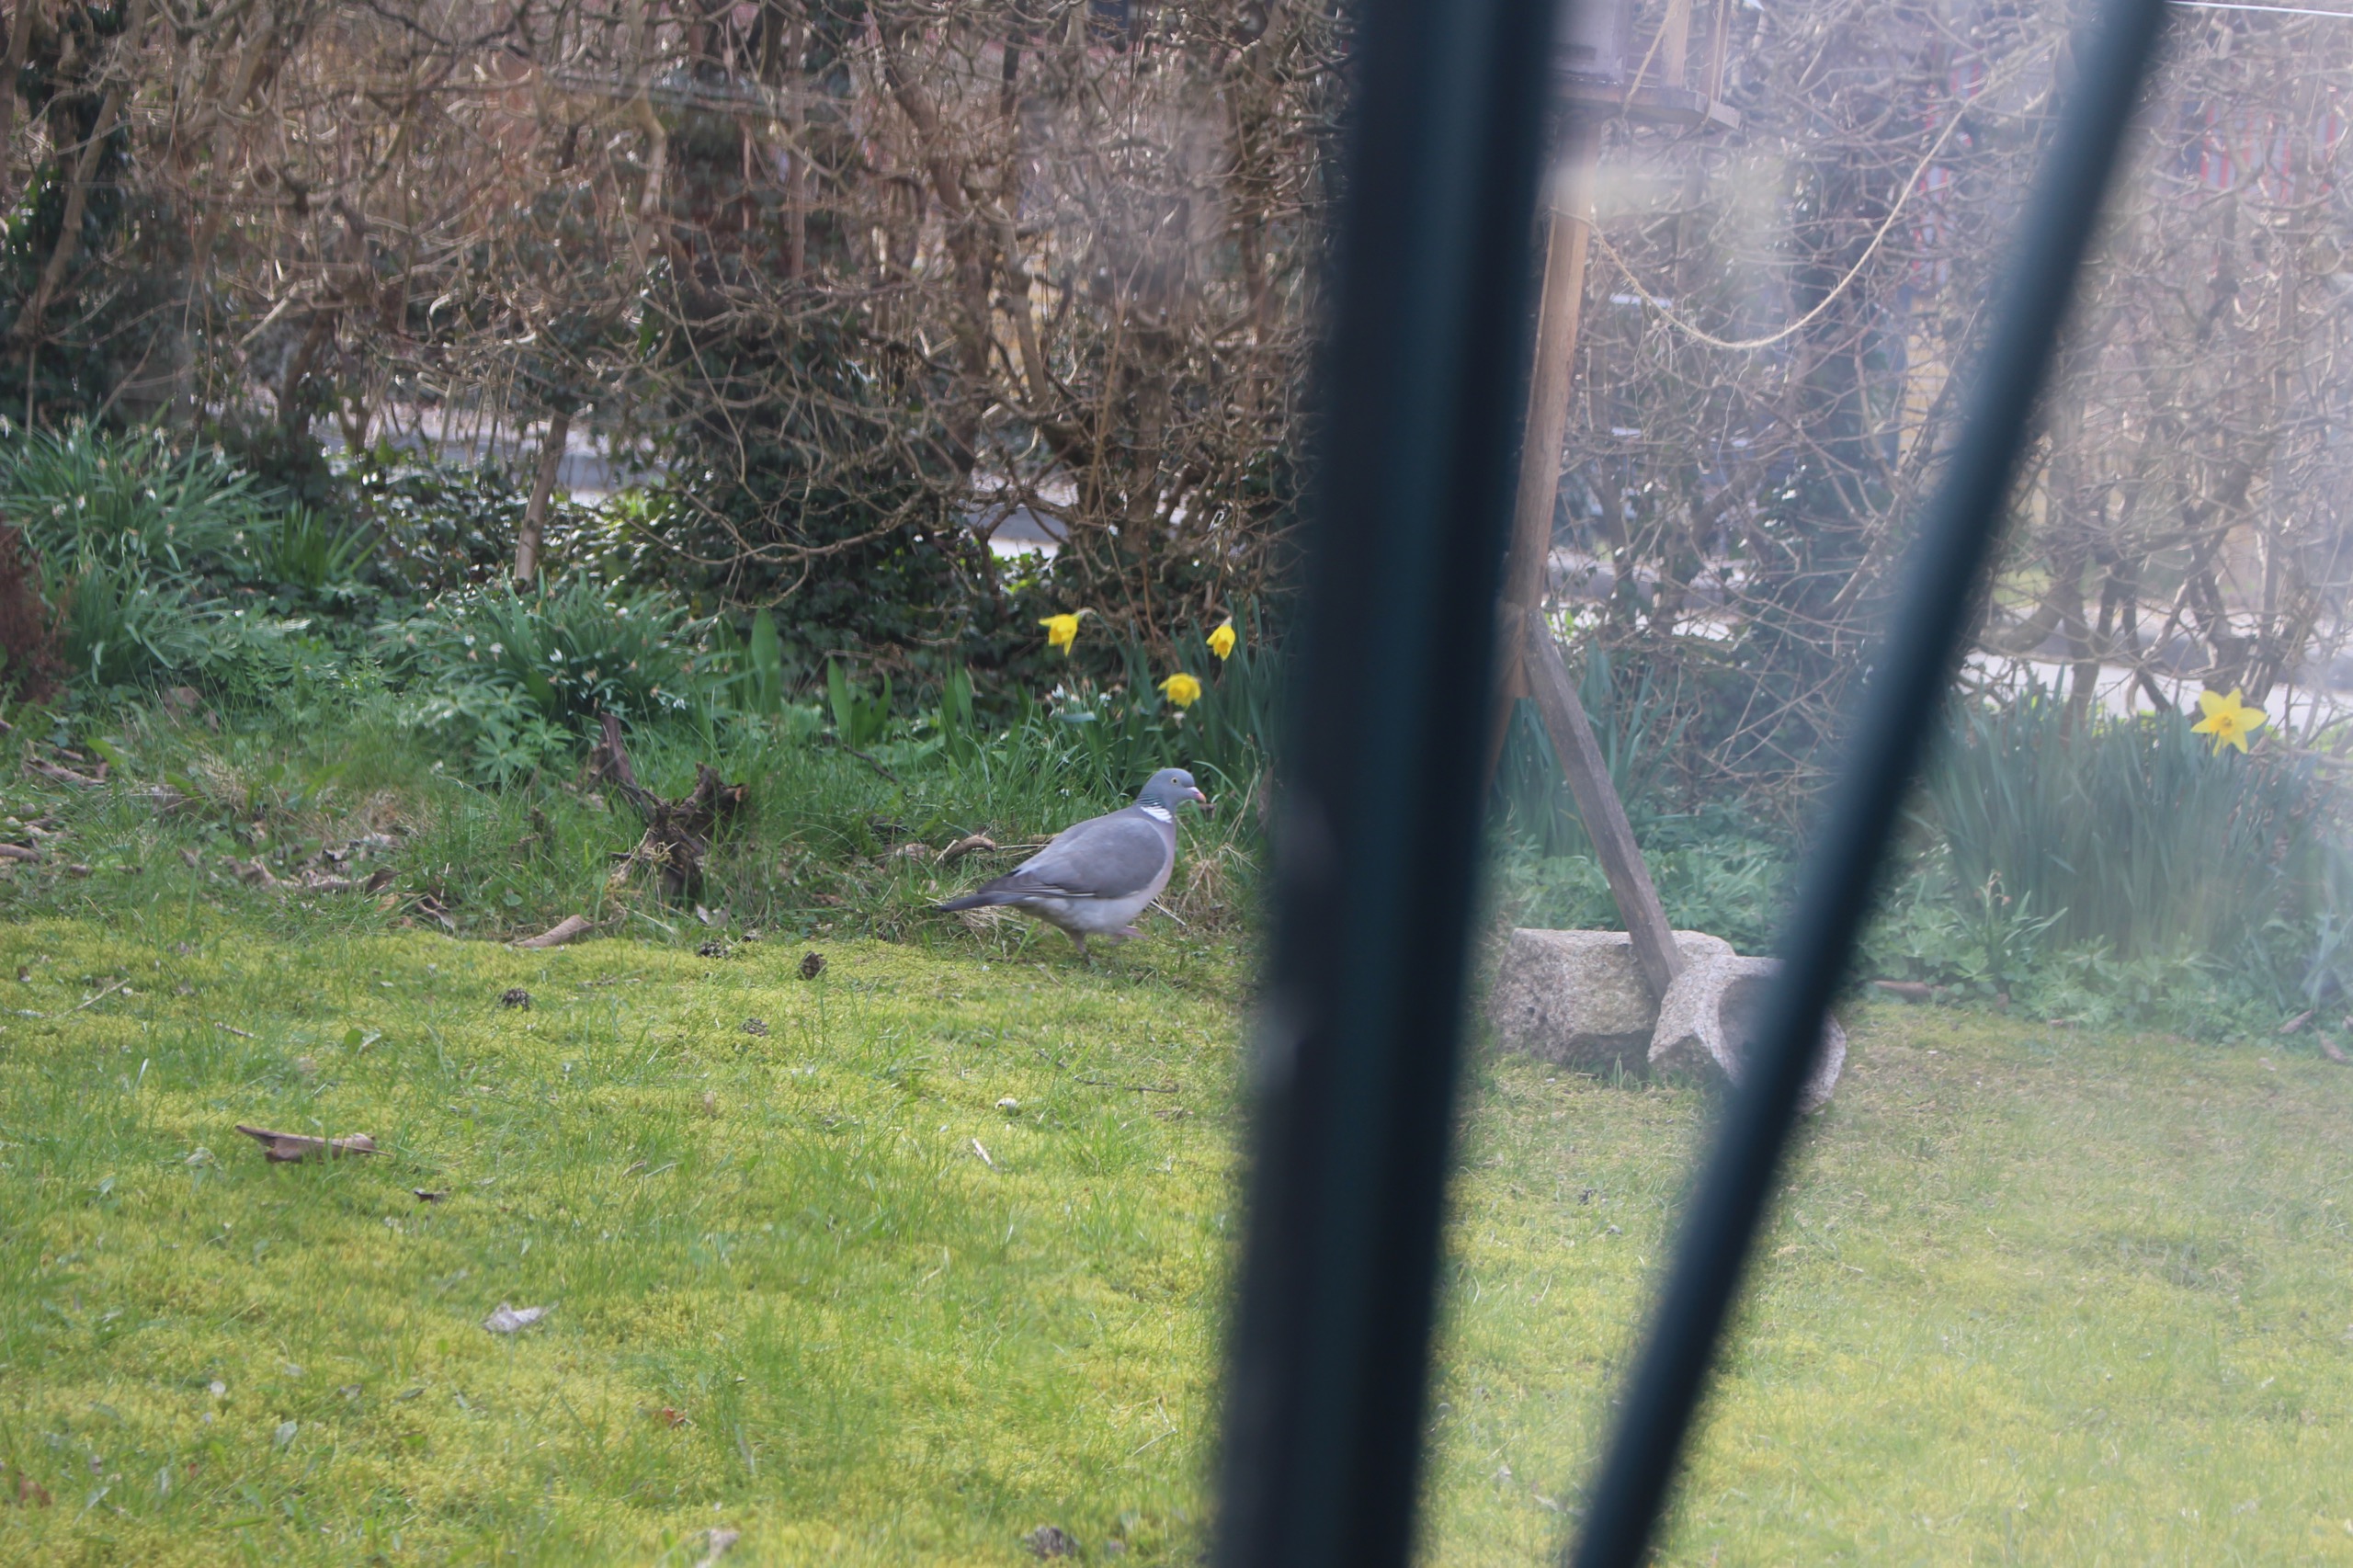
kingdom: Animalia
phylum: Chordata
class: Aves
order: Columbiformes
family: Columbidae
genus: Columba
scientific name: Columba palumbus
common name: Ringdue
